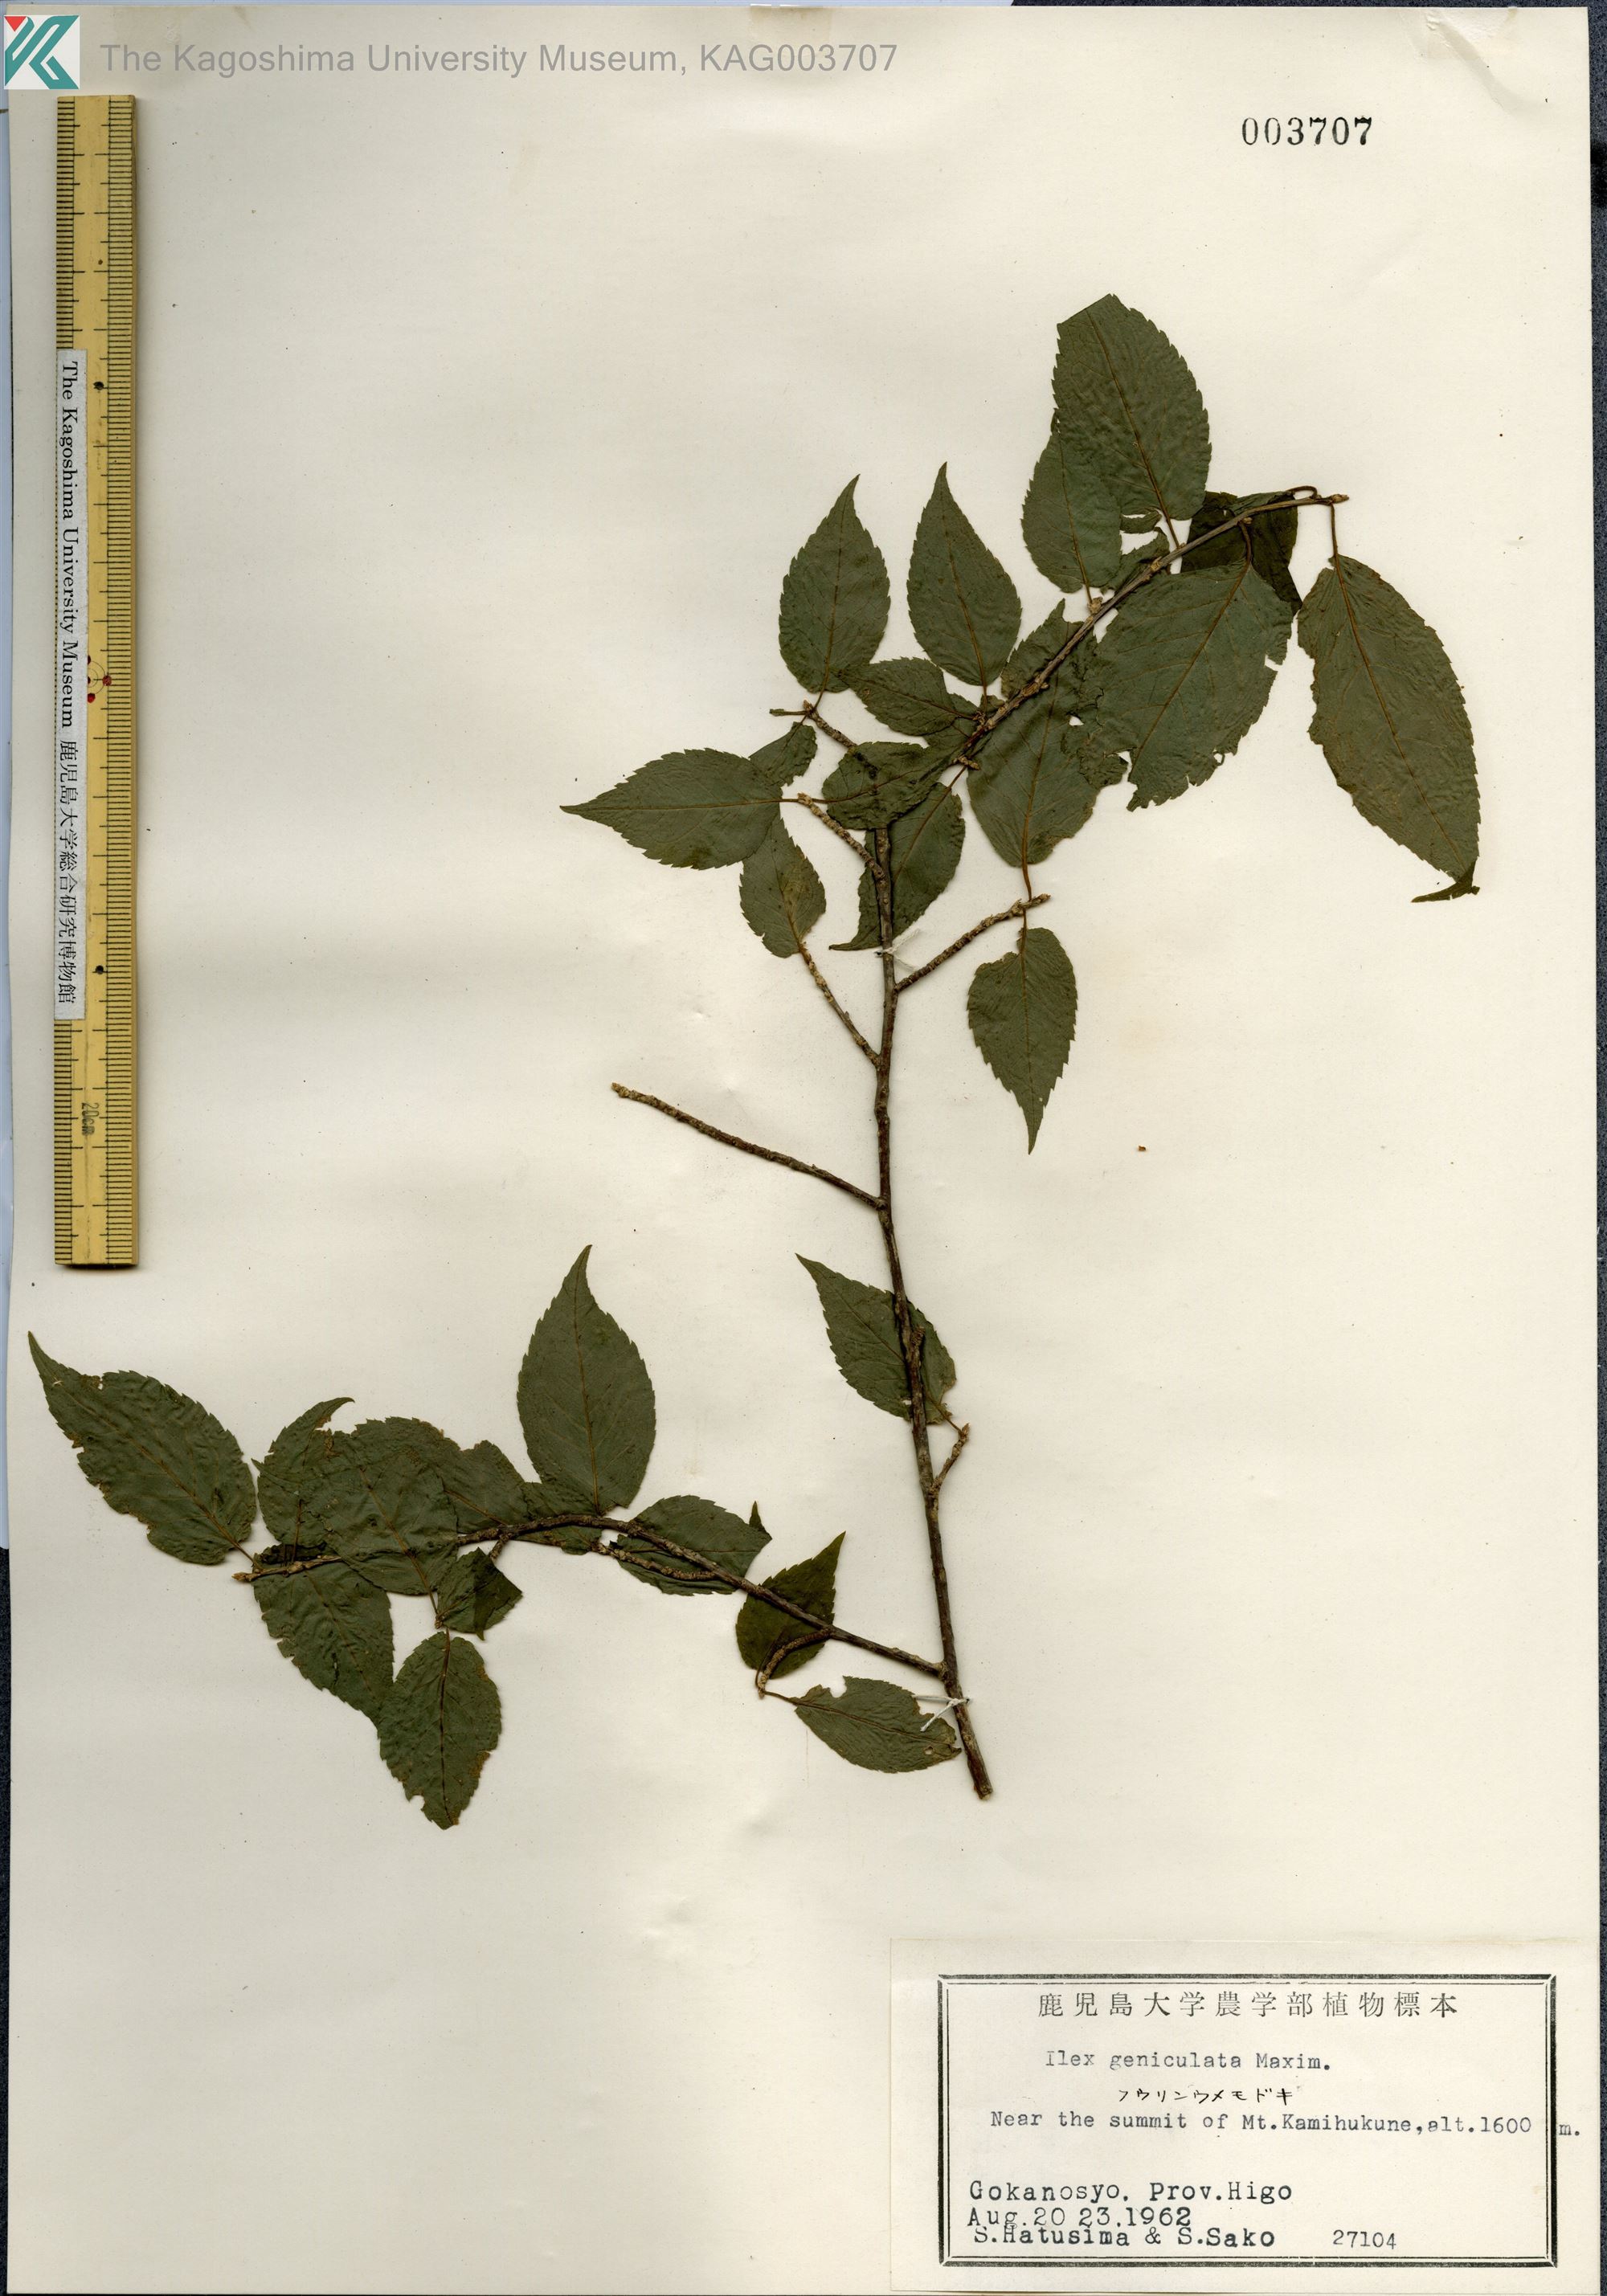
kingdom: Plantae
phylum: Tracheophyta
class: Magnoliopsida
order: Aquifoliales
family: Aquifoliaceae
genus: Ilex
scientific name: Ilex geniculata
